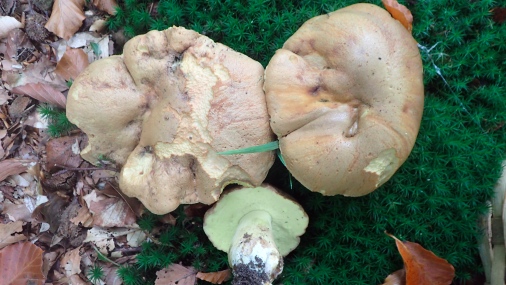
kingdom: Fungi
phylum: Basidiomycota
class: Agaricomycetes
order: Boletales
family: Boletaceae
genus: Butyriboletus
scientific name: Butyriboletus appendiculatus
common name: tenstokket rørhat
